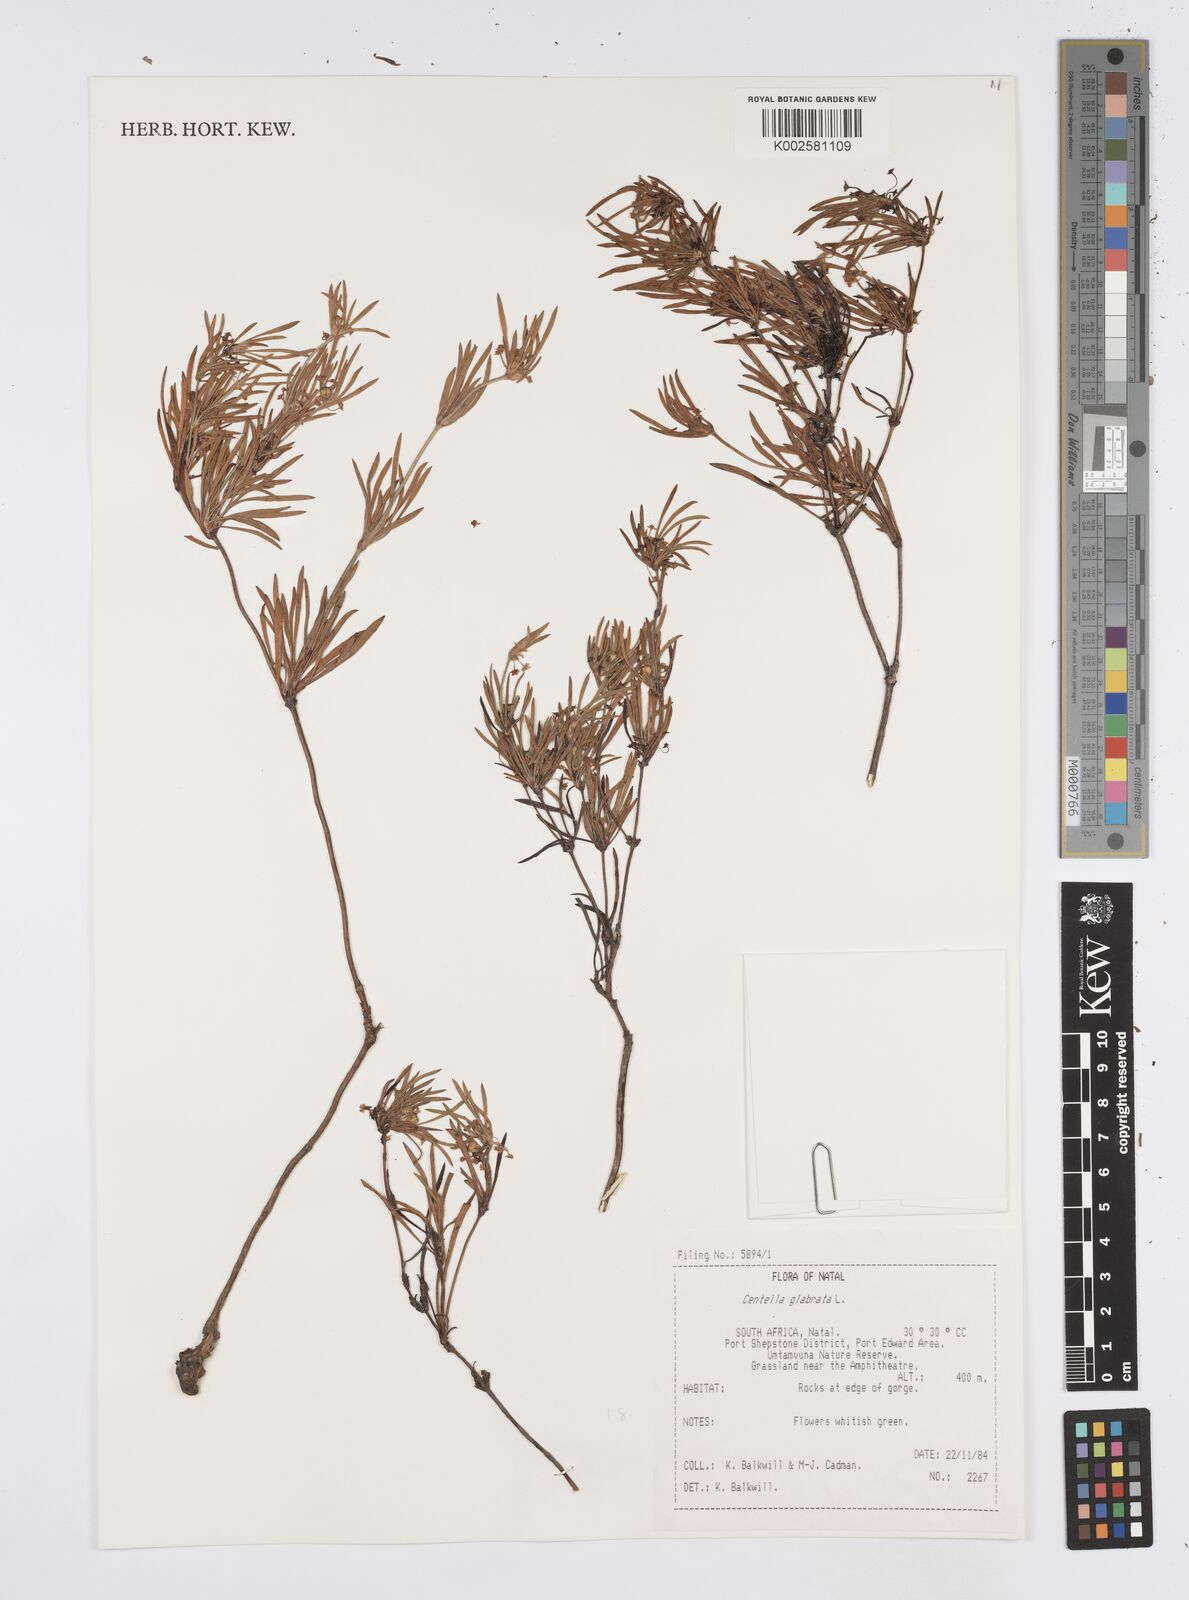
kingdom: Plantae
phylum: Tracheophyta
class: Magnoliopsida
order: Apiales
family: Apiaceae
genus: Centella
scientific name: Centella glabrata
